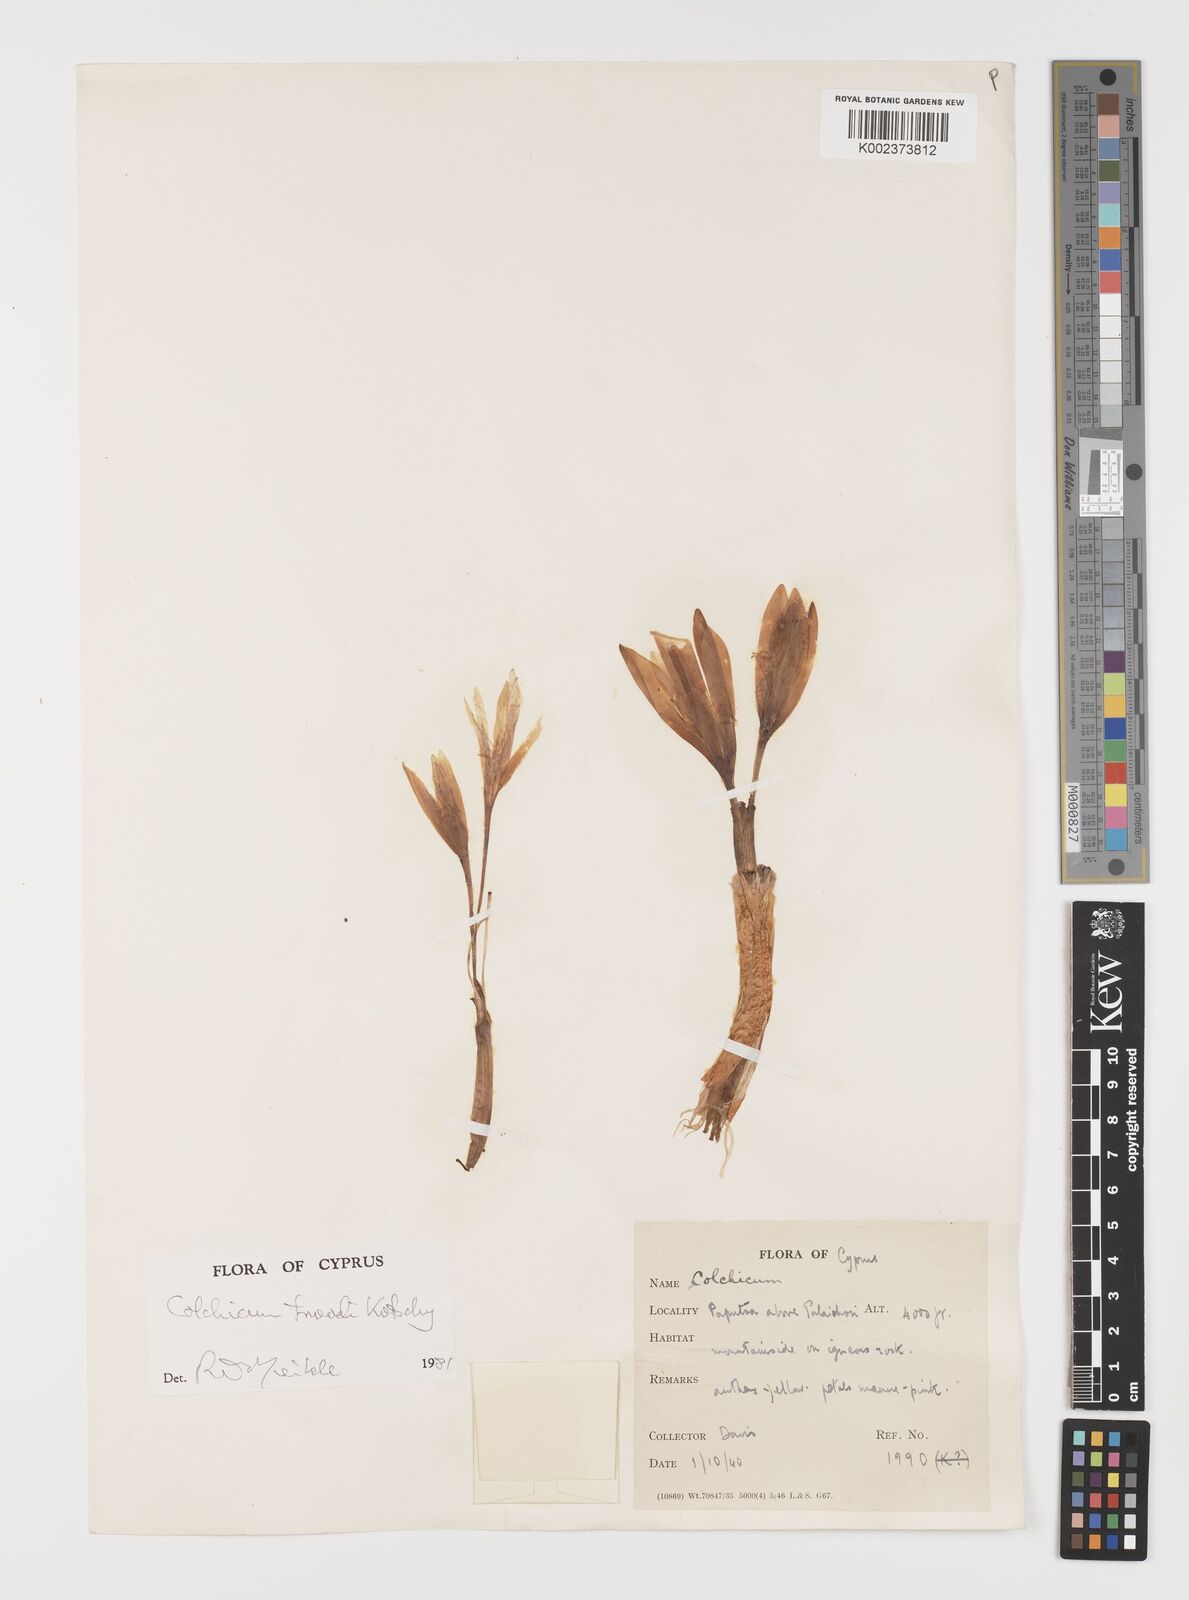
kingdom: Plantae
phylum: Tracheophyta
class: Liliopsida
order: Liliales
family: Colchicaceae
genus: Colchicum
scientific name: Colchicum troodi
